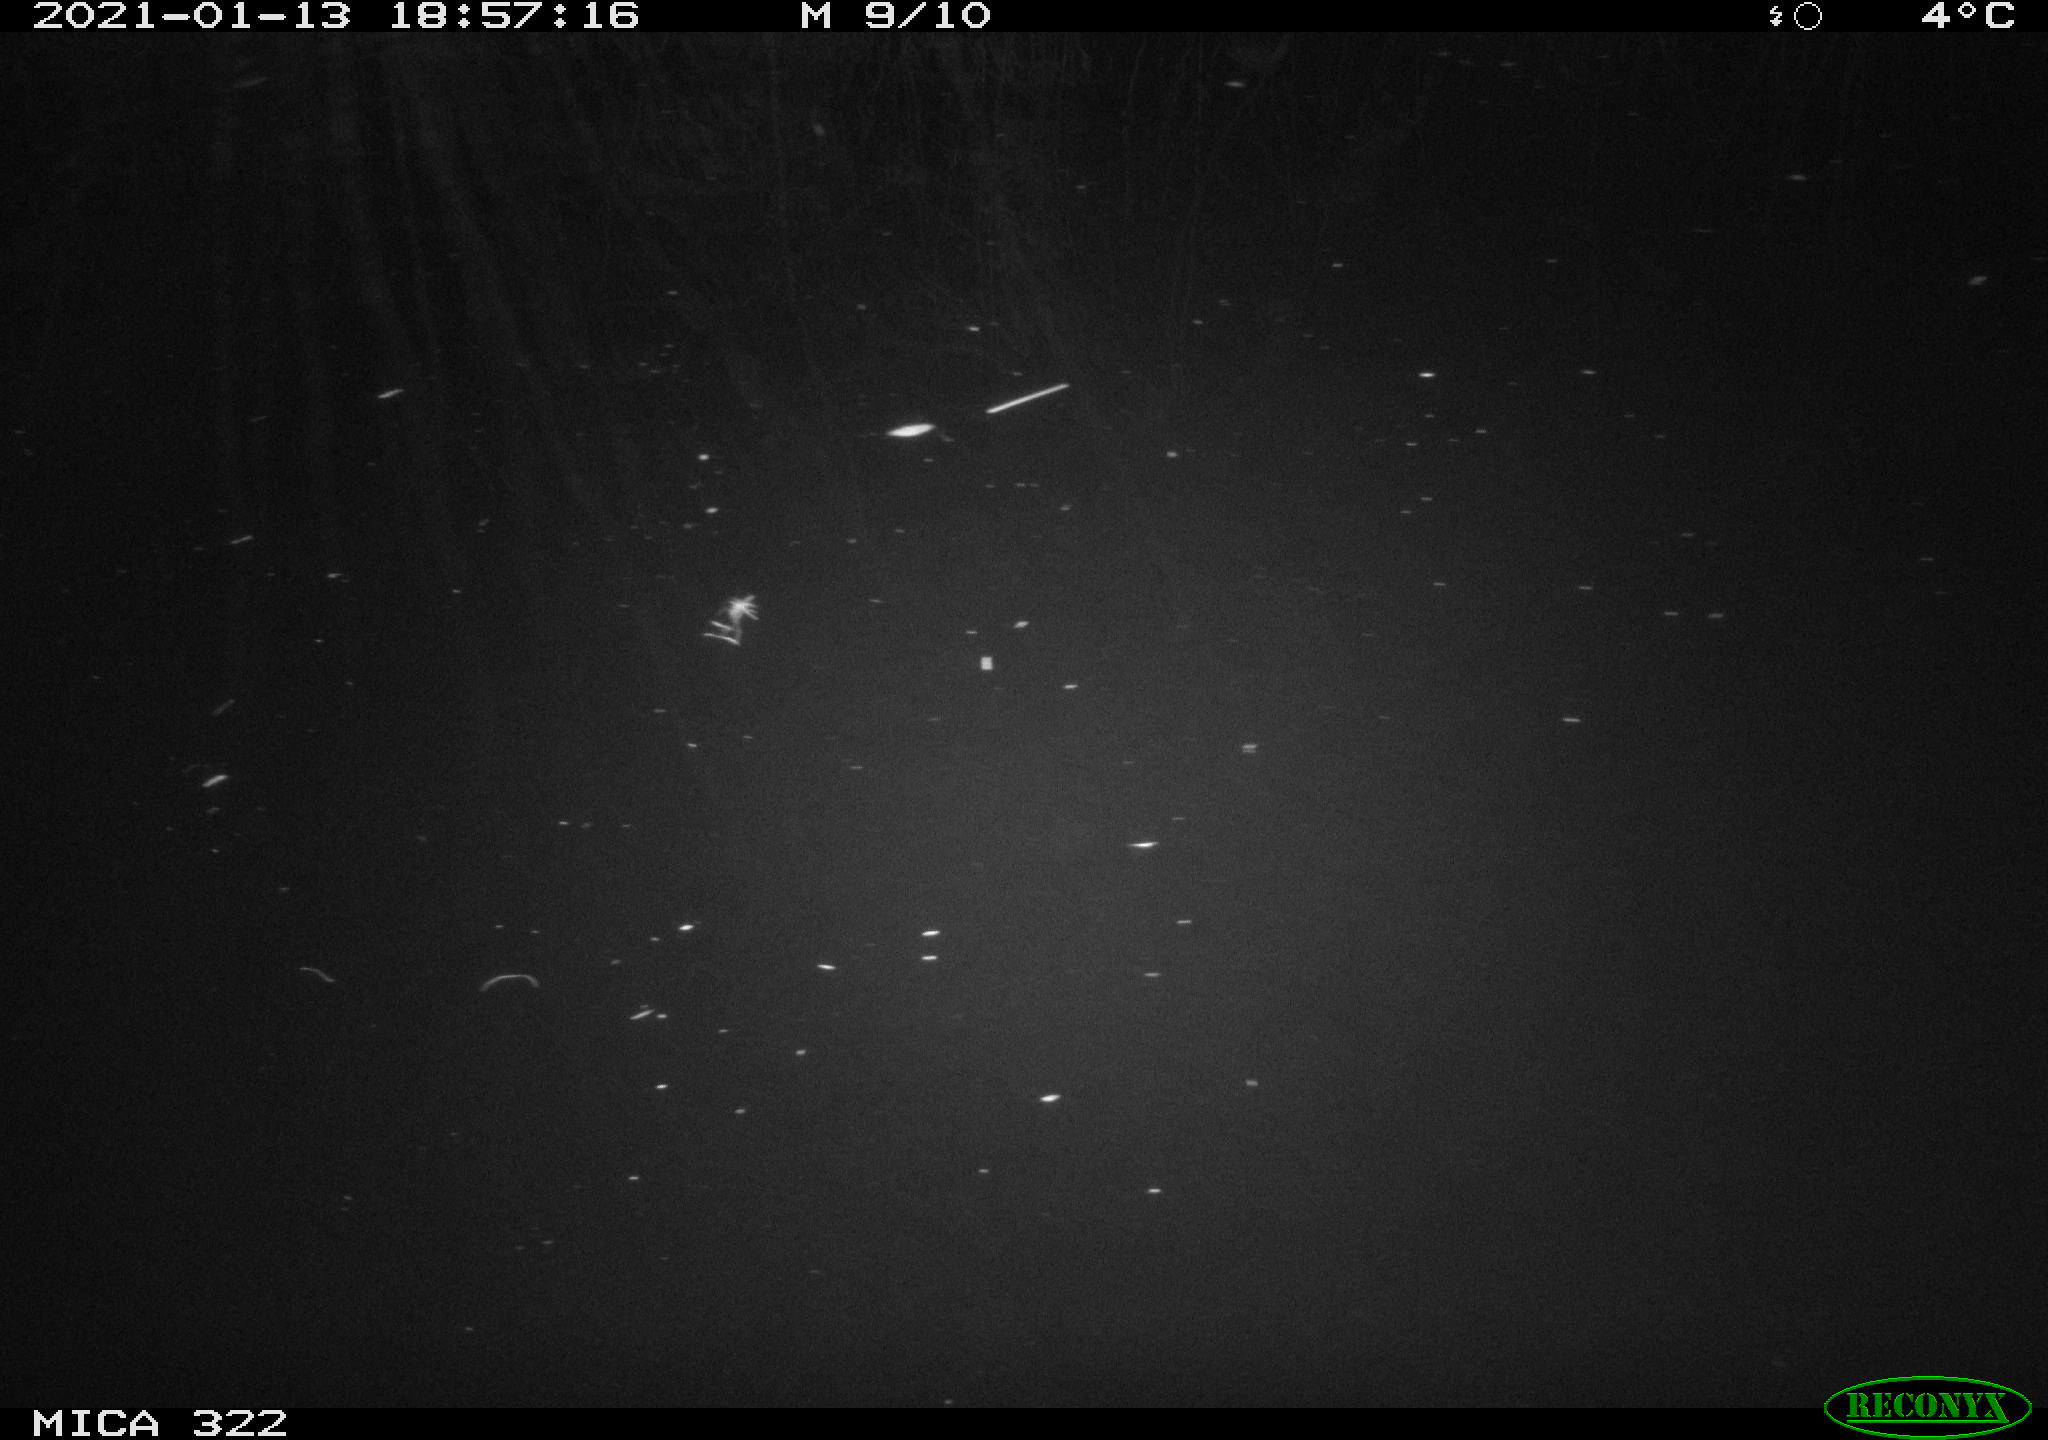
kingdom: Animalia
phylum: Chordata
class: Aves
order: Gruiformes
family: Rallidae
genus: Fulica
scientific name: Fulica atra
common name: Eurasian coot
